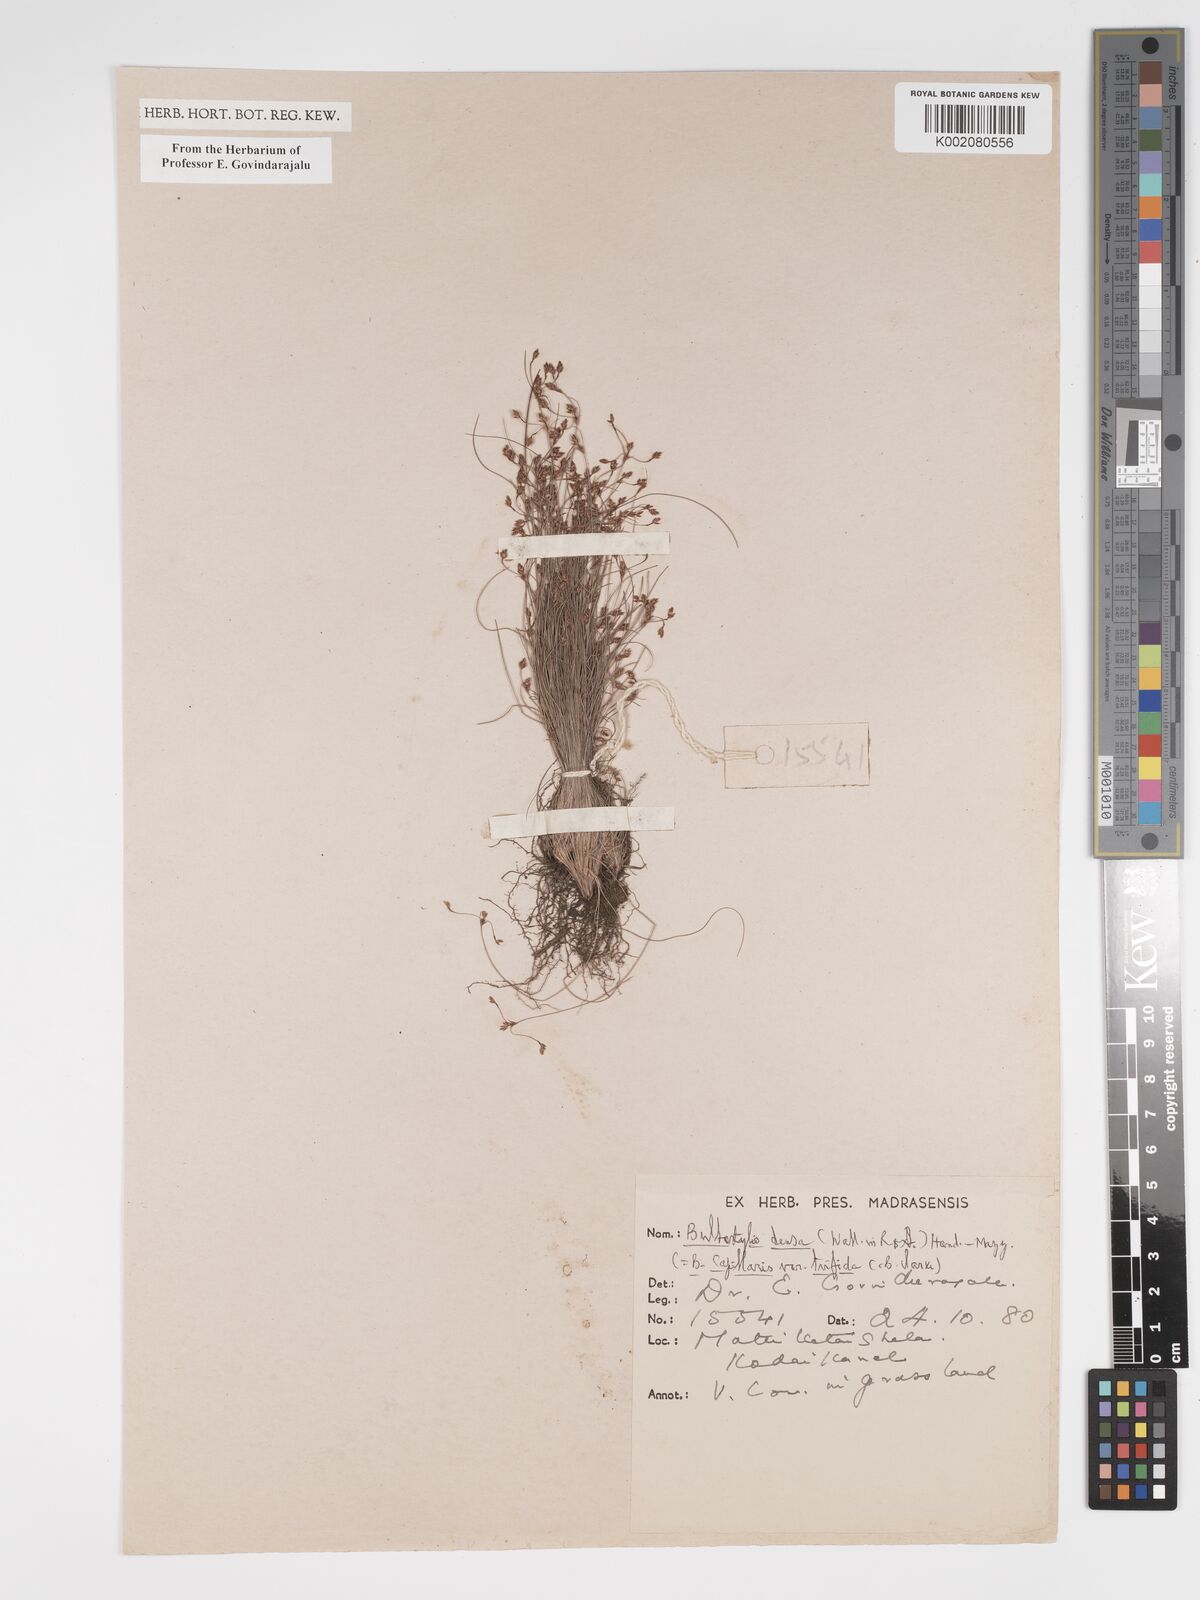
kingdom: Plantae
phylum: Tracheophyta
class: Liliopsida
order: Poales
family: Cyperaceae
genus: Bulbostylis
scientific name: Bulbostylis densa
